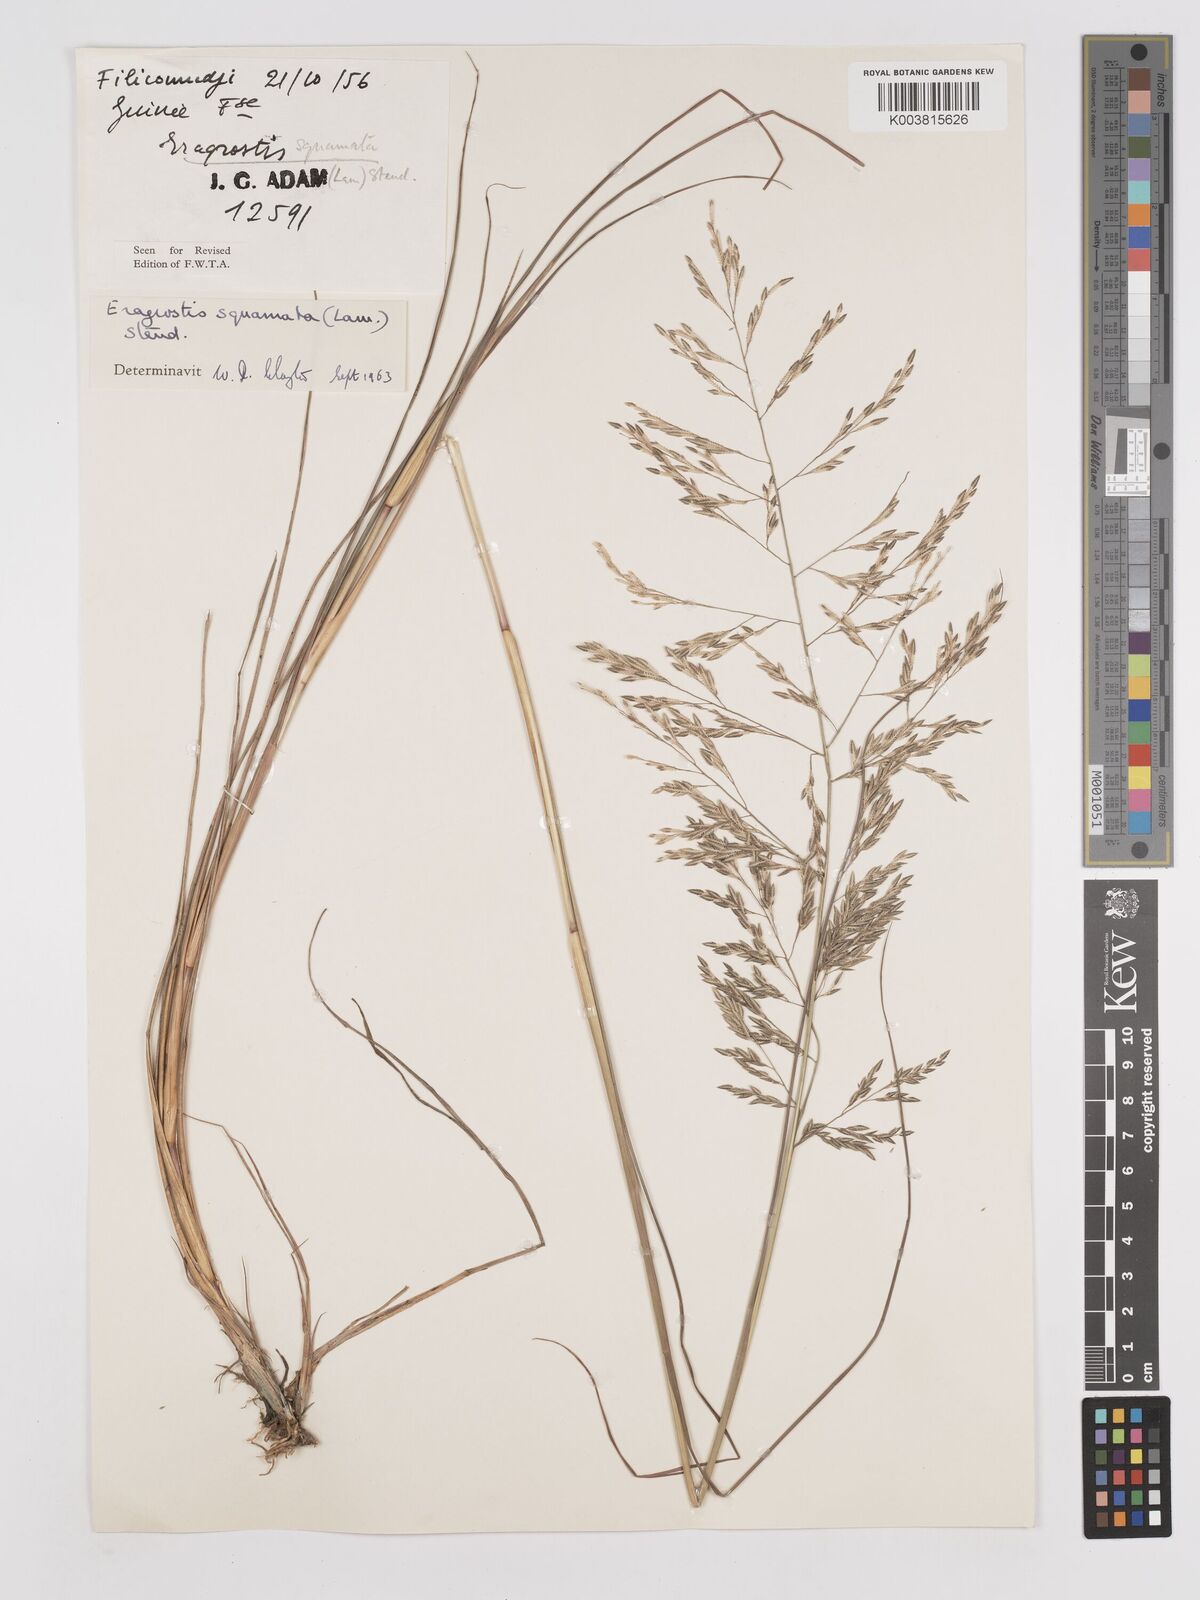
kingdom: Plantae
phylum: Tracheophyta
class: Liliopsida
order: Poales
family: Poaceae
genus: Eragrostis
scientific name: Eragrostis squamata
